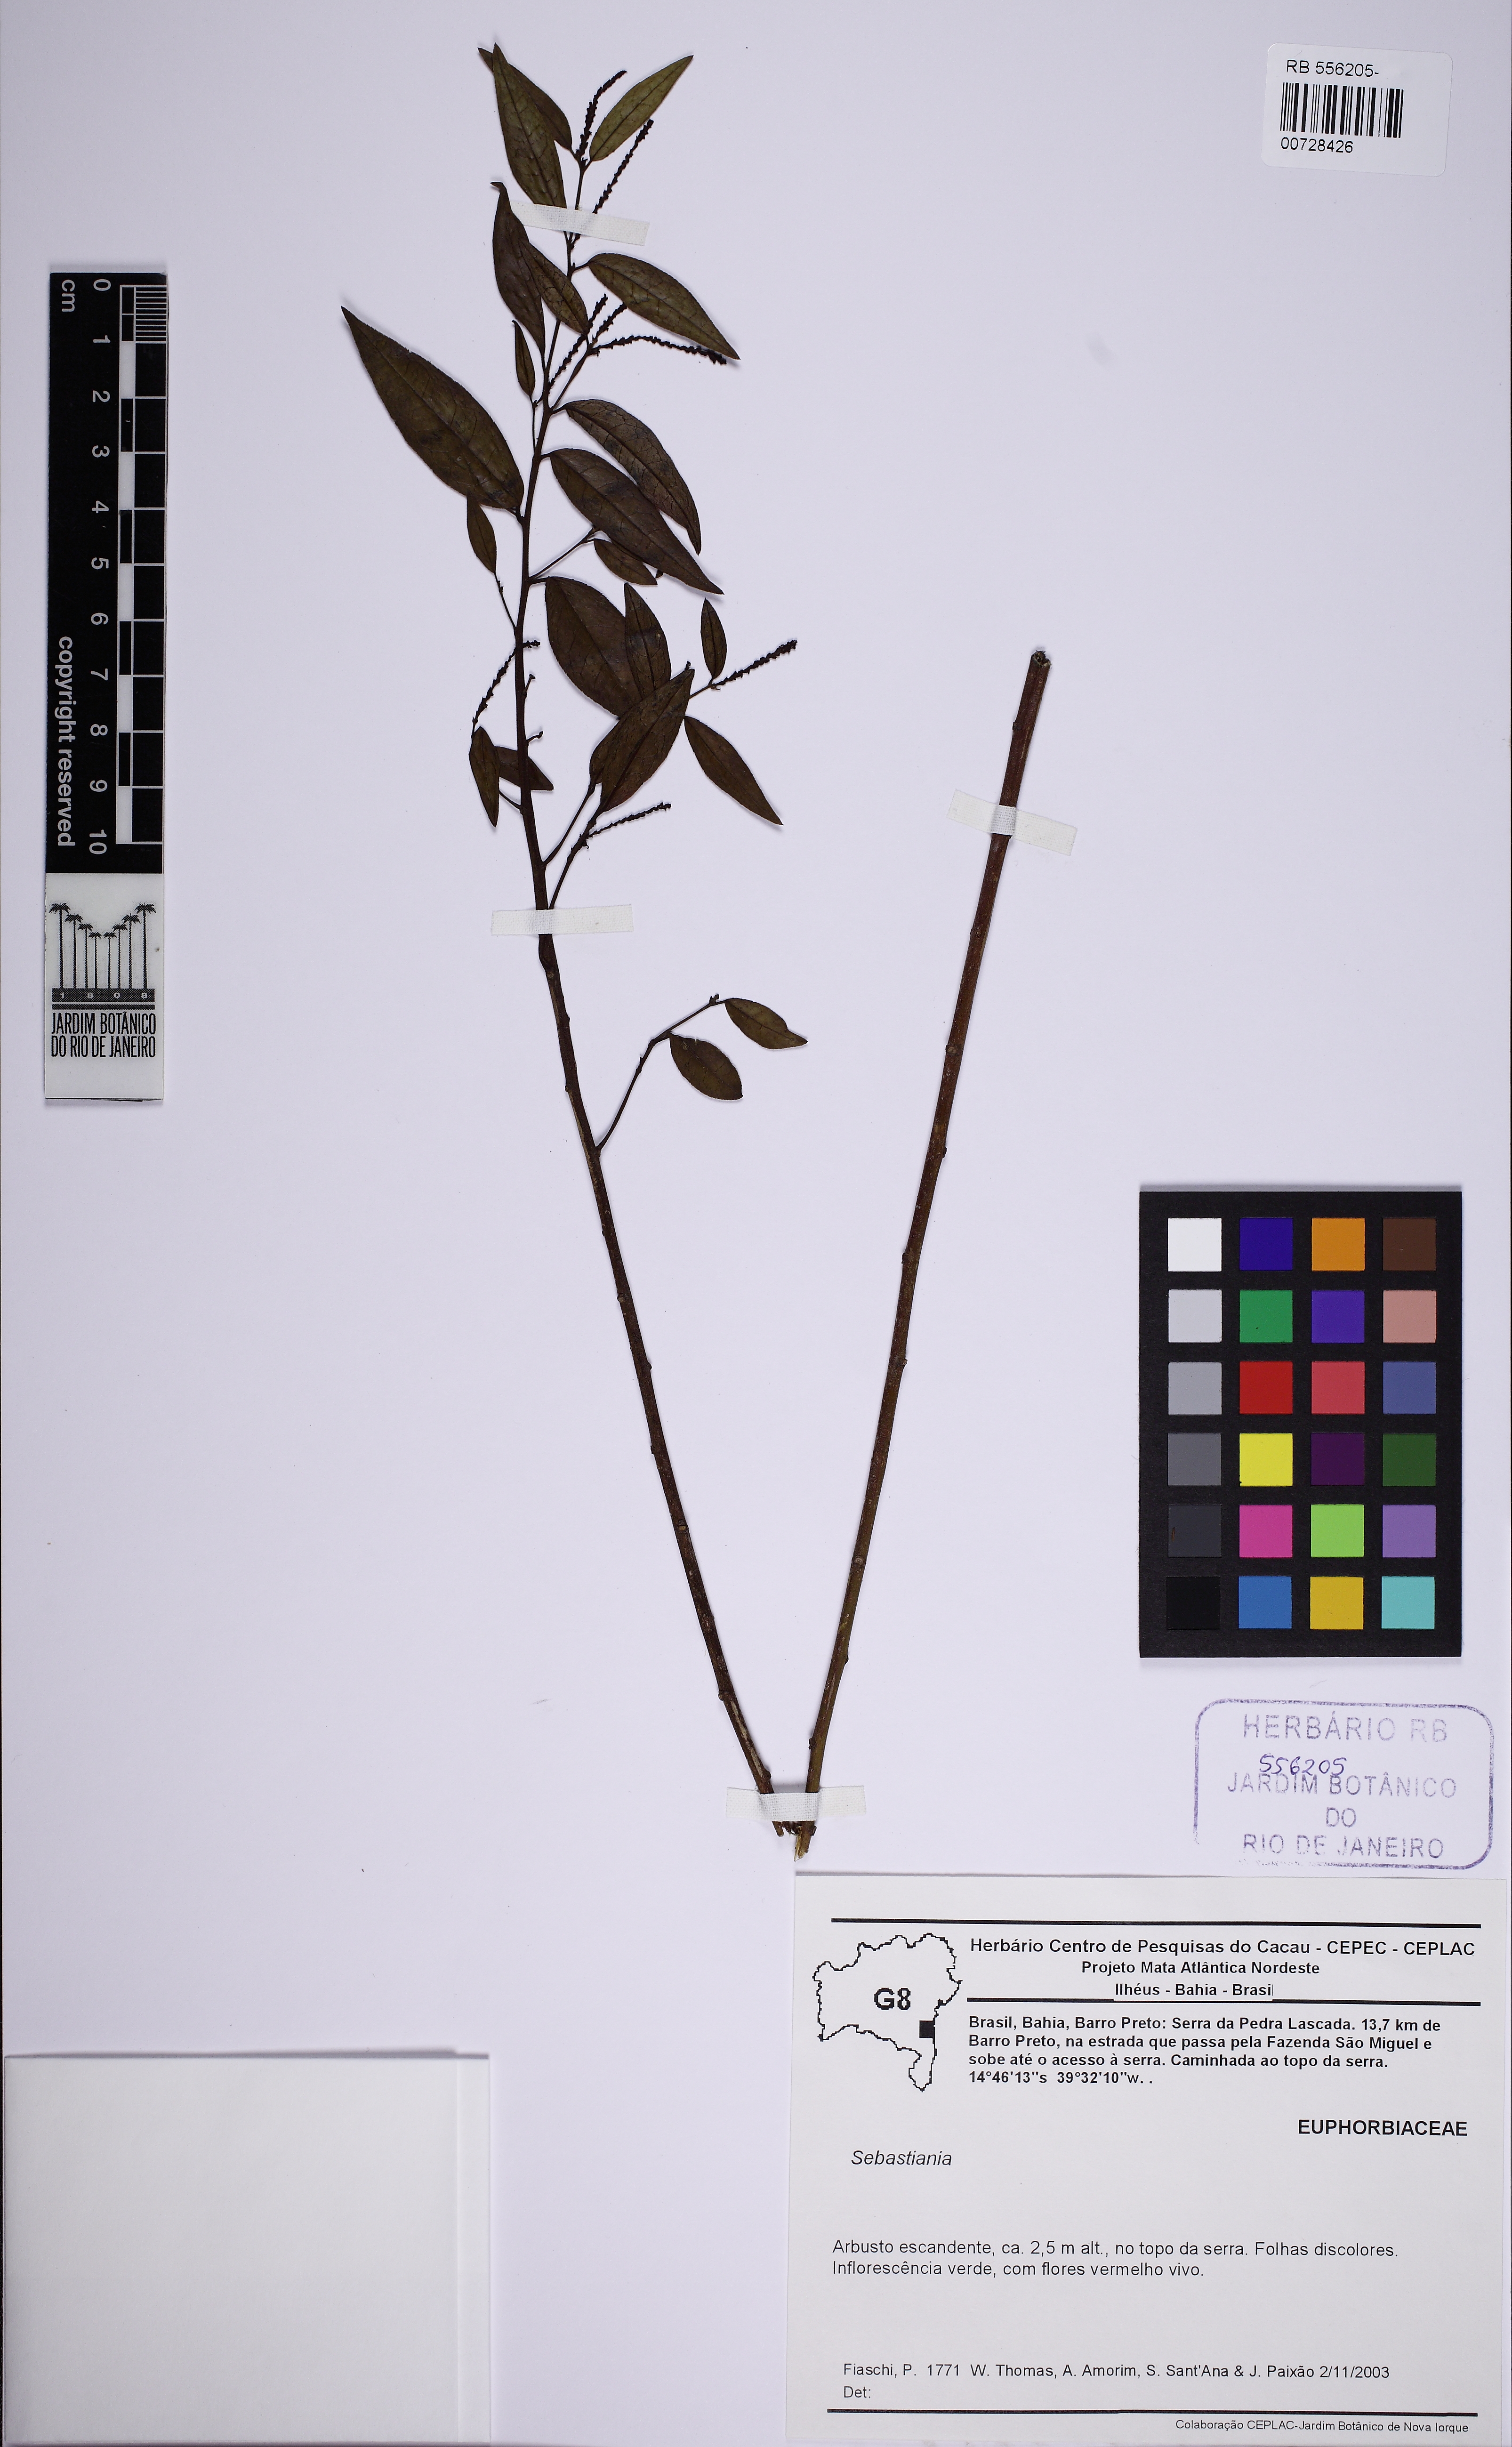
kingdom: Plantae
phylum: Tracheophyta
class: Magnoliopsida
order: Malpighiales
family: Euphorbiaceae
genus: Sebastiania
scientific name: Sebastiania
